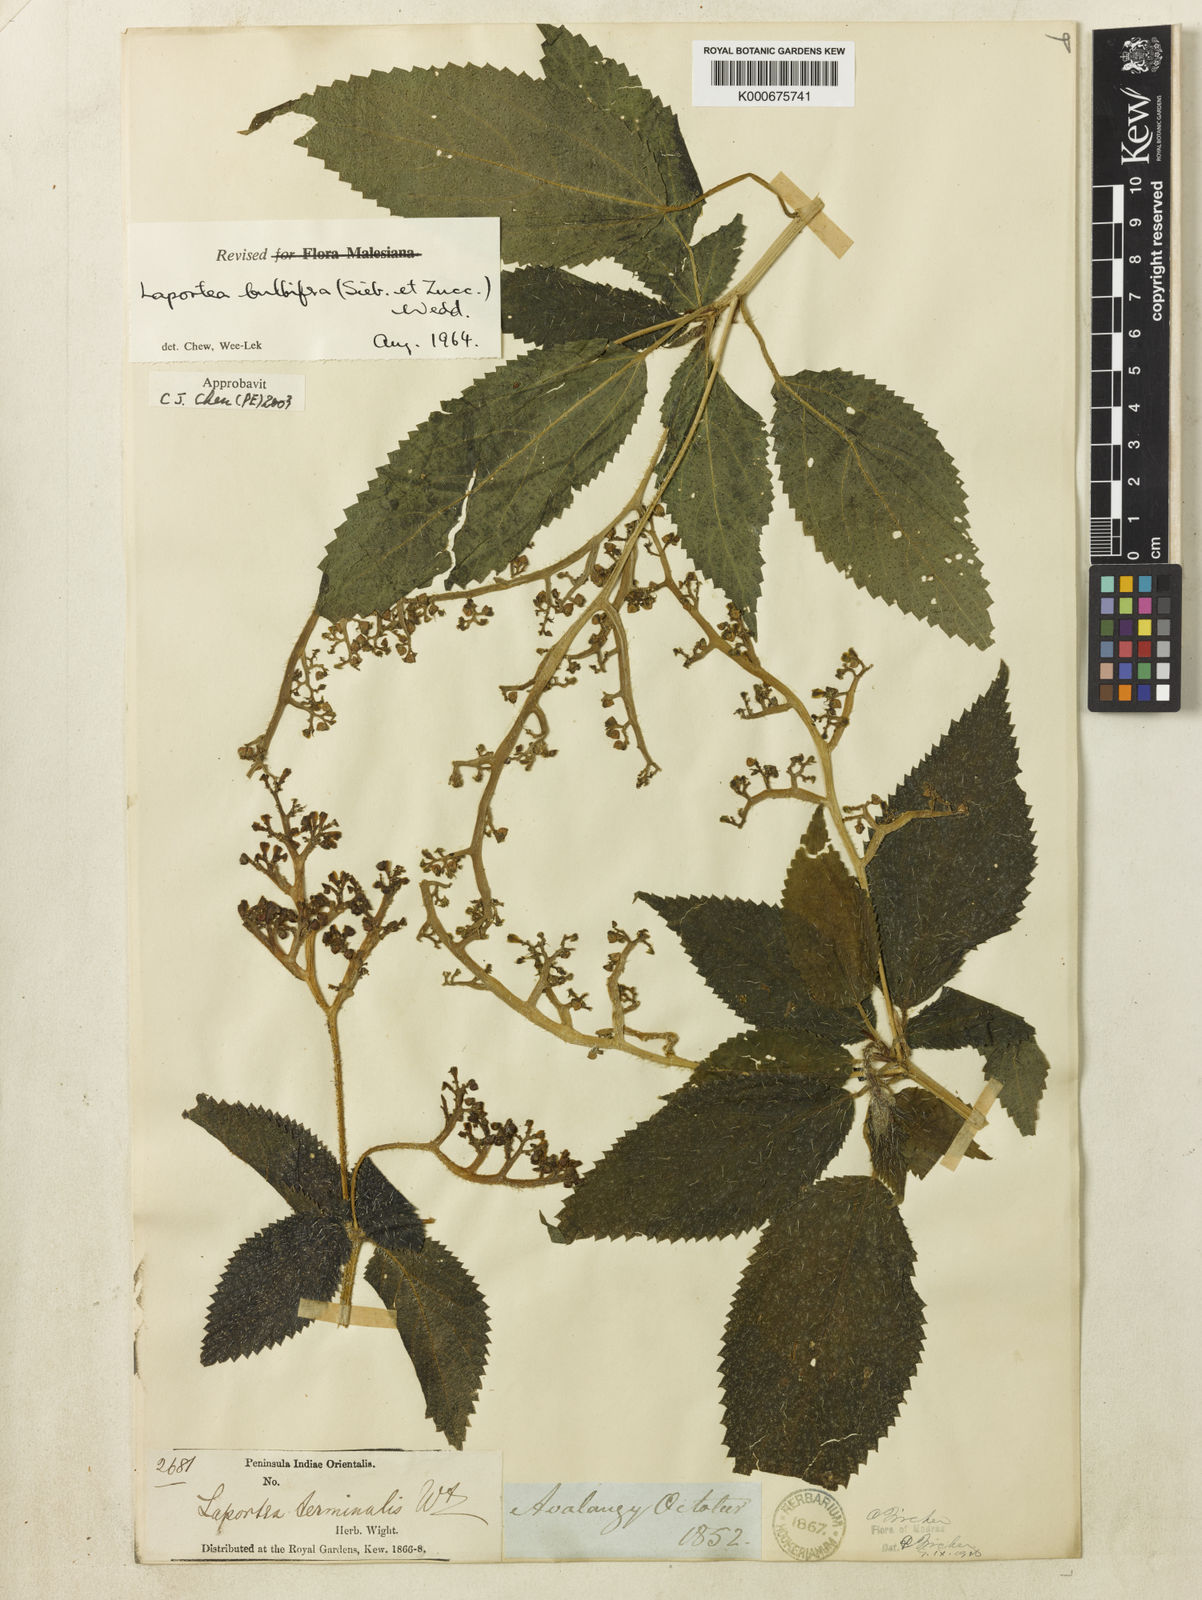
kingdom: Plantae
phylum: Tracheophyta
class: Magnoliopsida
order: Rosales
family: Urticaceae
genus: Laportea
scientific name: Laportea bulbifera
